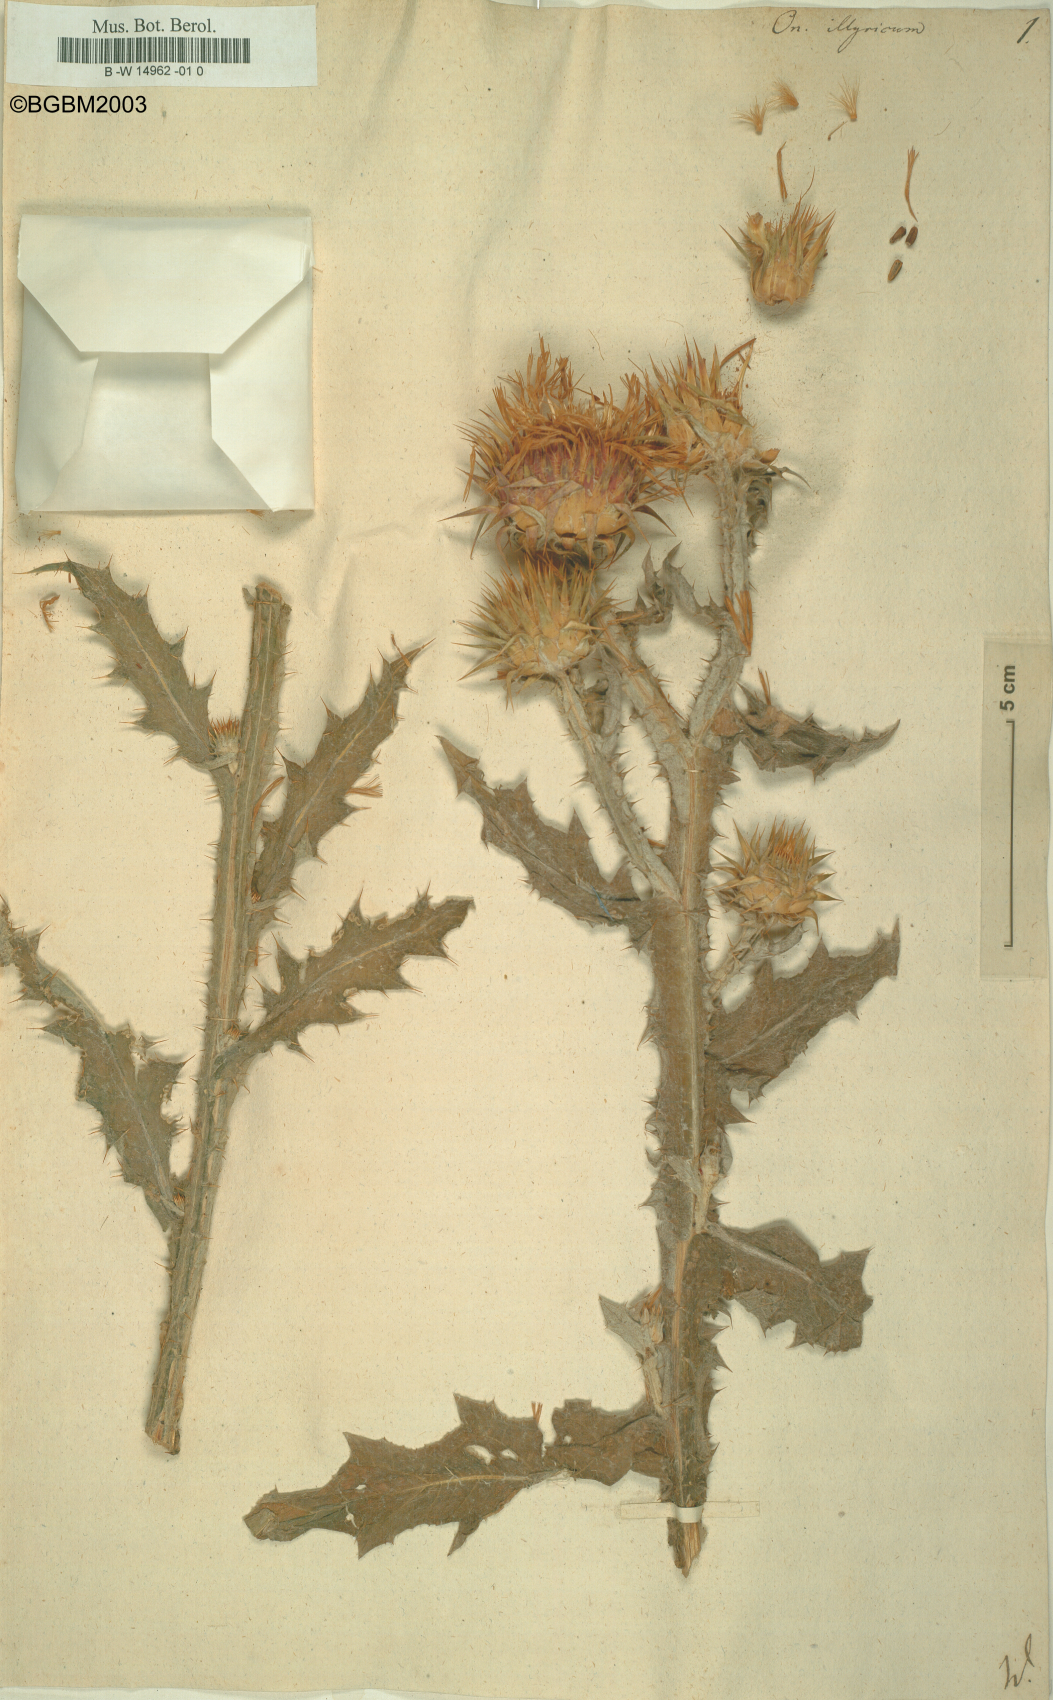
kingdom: Plantae
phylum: Tracheophyta
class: Magnoliopsida
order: Asterales
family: Asteraceae
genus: Onopordum
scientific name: Onopordum illyricum
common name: Illyrian thistle
